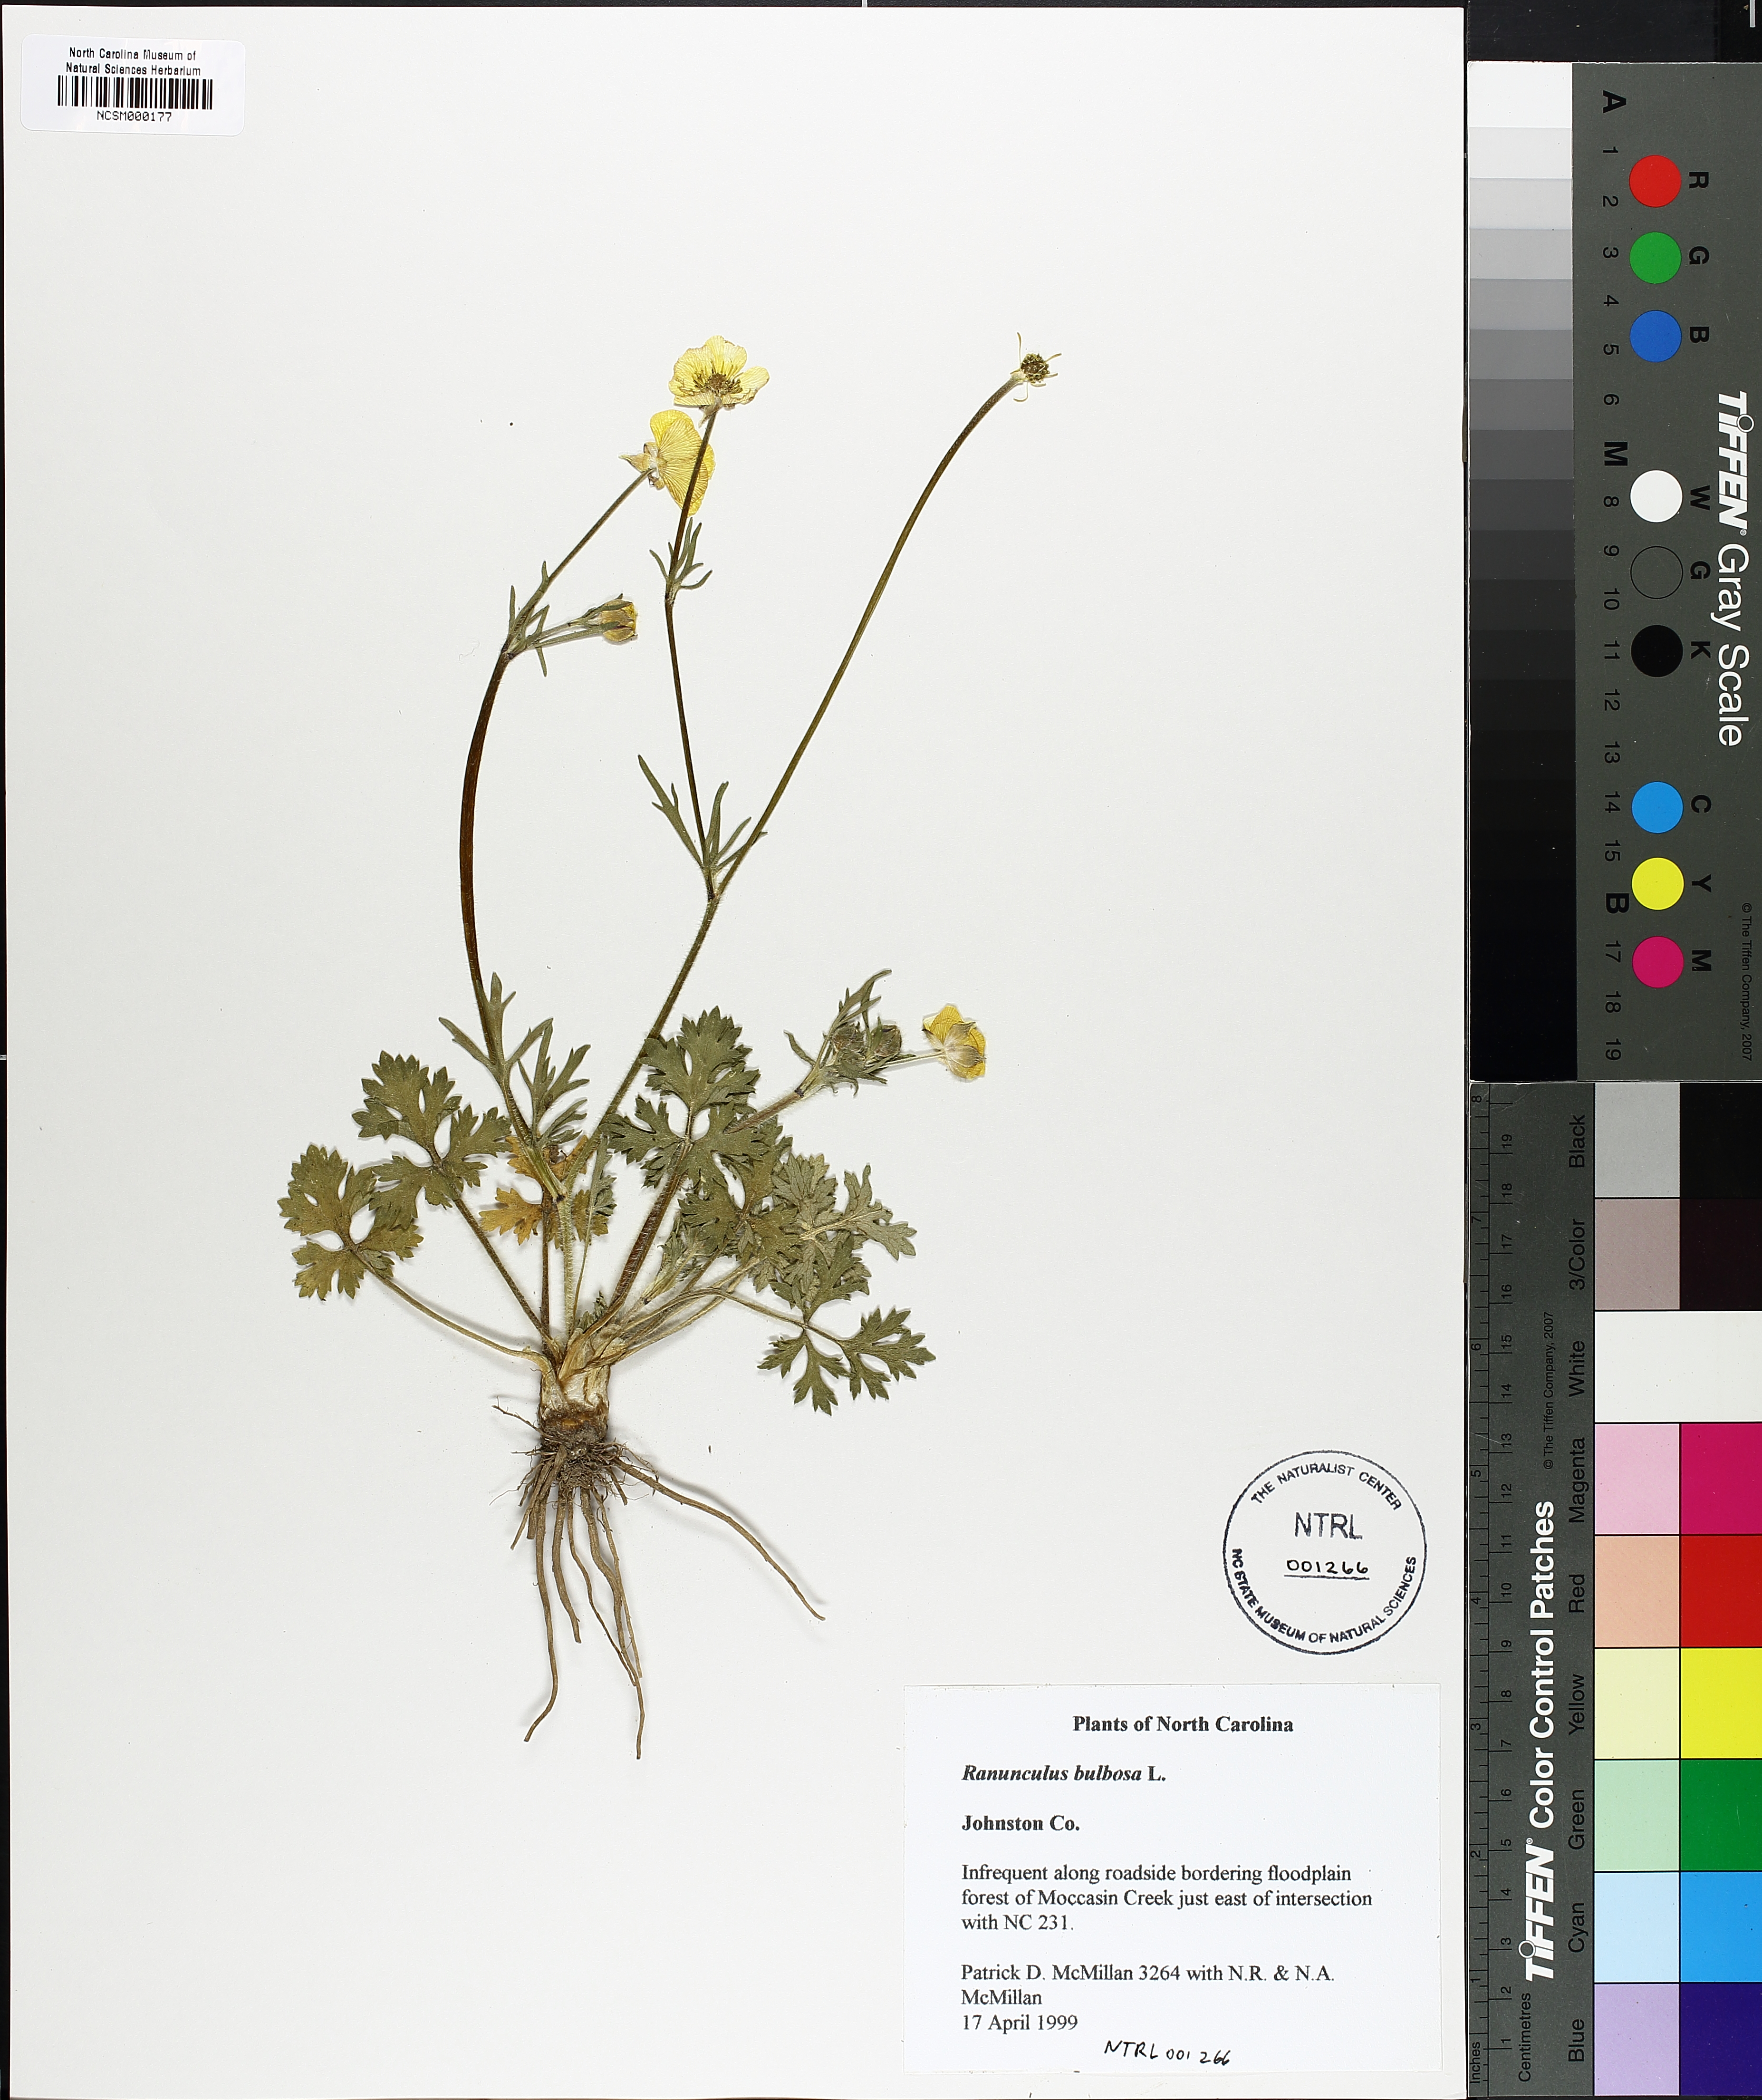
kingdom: Plantae
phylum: Tracheophyta
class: Magnoliopsida
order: Ranunculales
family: Ranunculaceae
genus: Ranunculus
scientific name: Ranunculus bulbosus
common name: Bulbous buttercup
